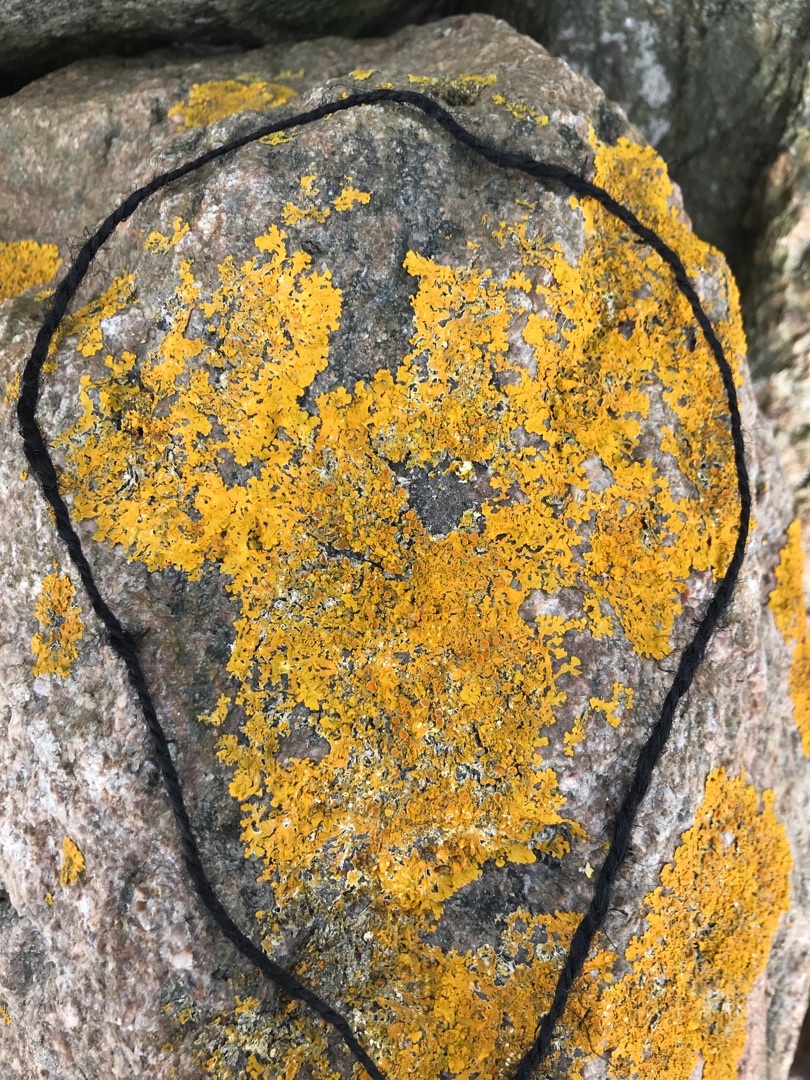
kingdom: Fungi
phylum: Ascomycota
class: Lecanoromycetes
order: Teloschistales
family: Teloschistaceae
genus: Xanthoria
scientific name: Xanthoria parietina
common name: Almindelig væggelav
